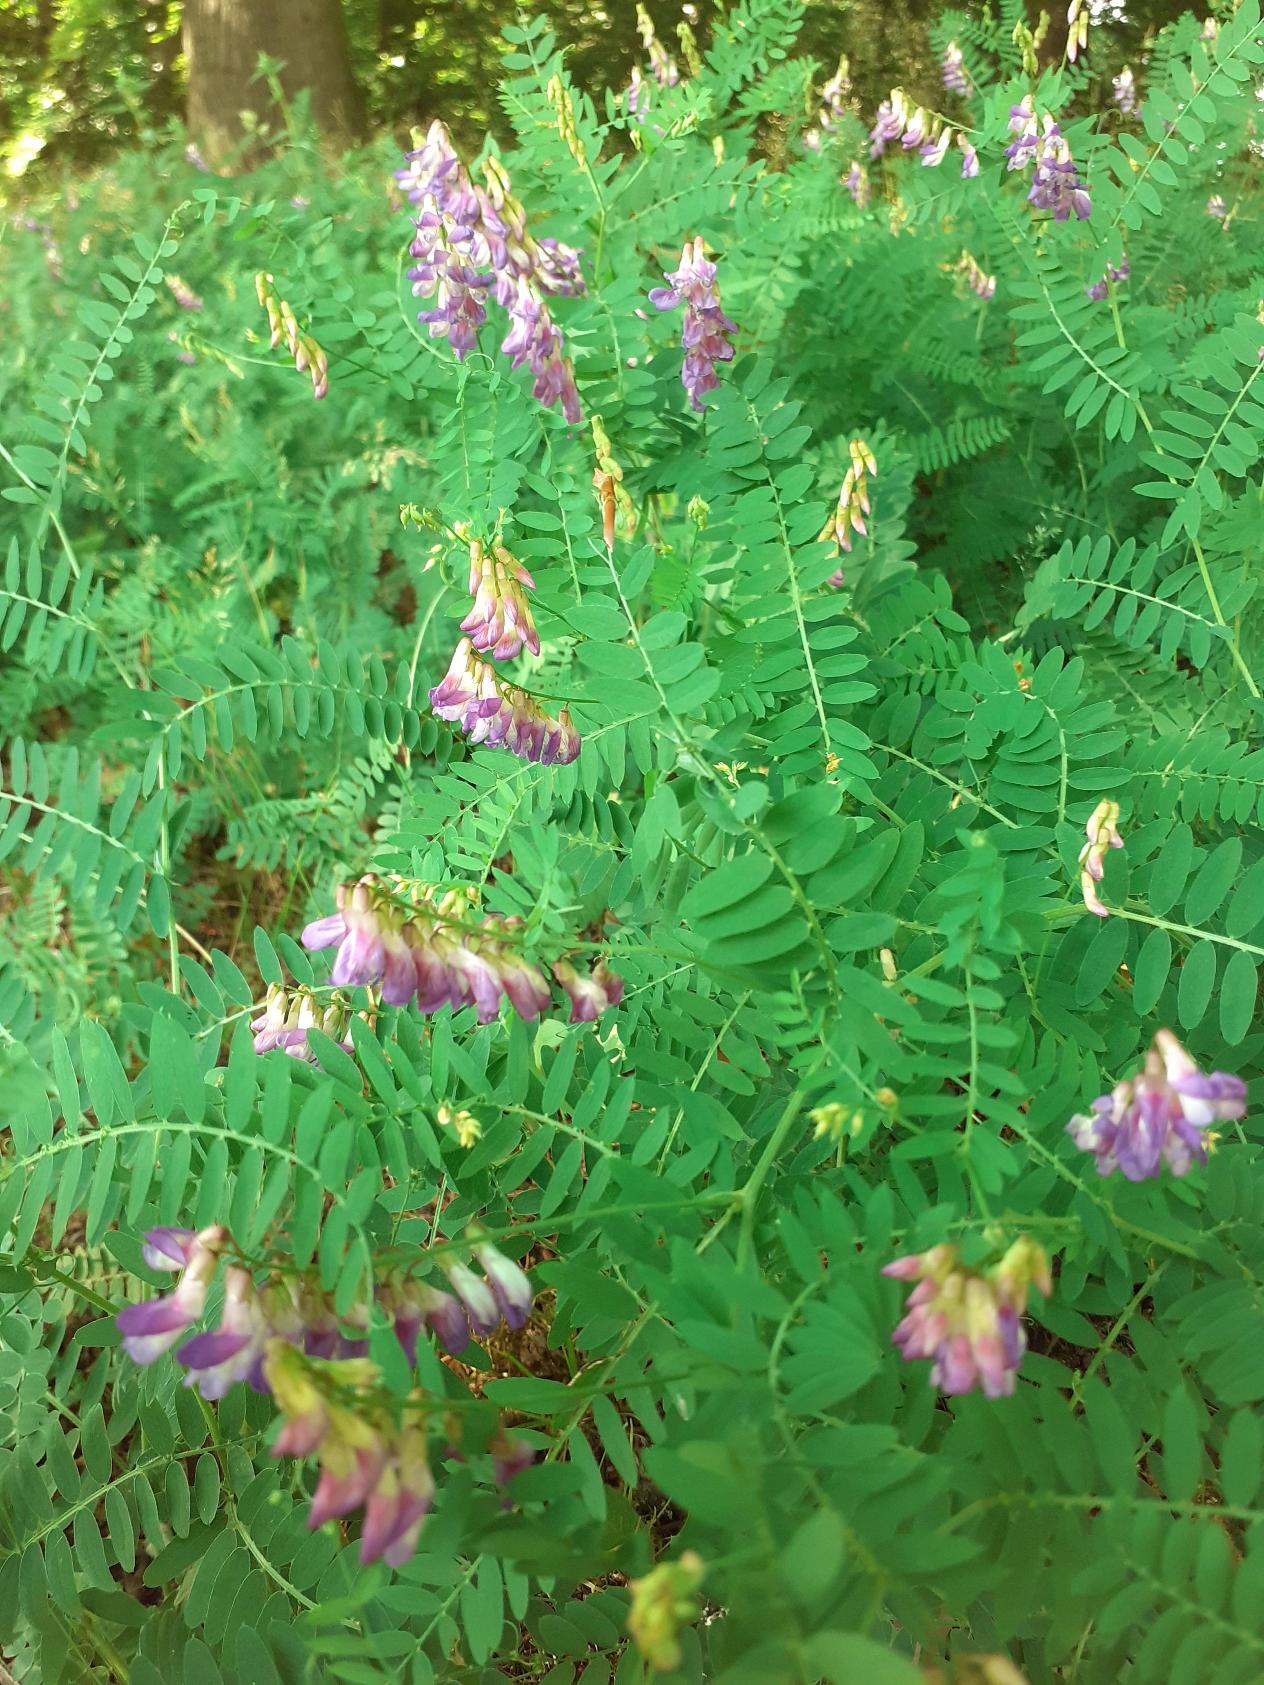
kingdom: Plantae
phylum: Tracheophyta
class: Magnoliopsida
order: Fabales
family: Fabaceae
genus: Vicia
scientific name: Vicia cassubica
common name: Kassubisk vikke
